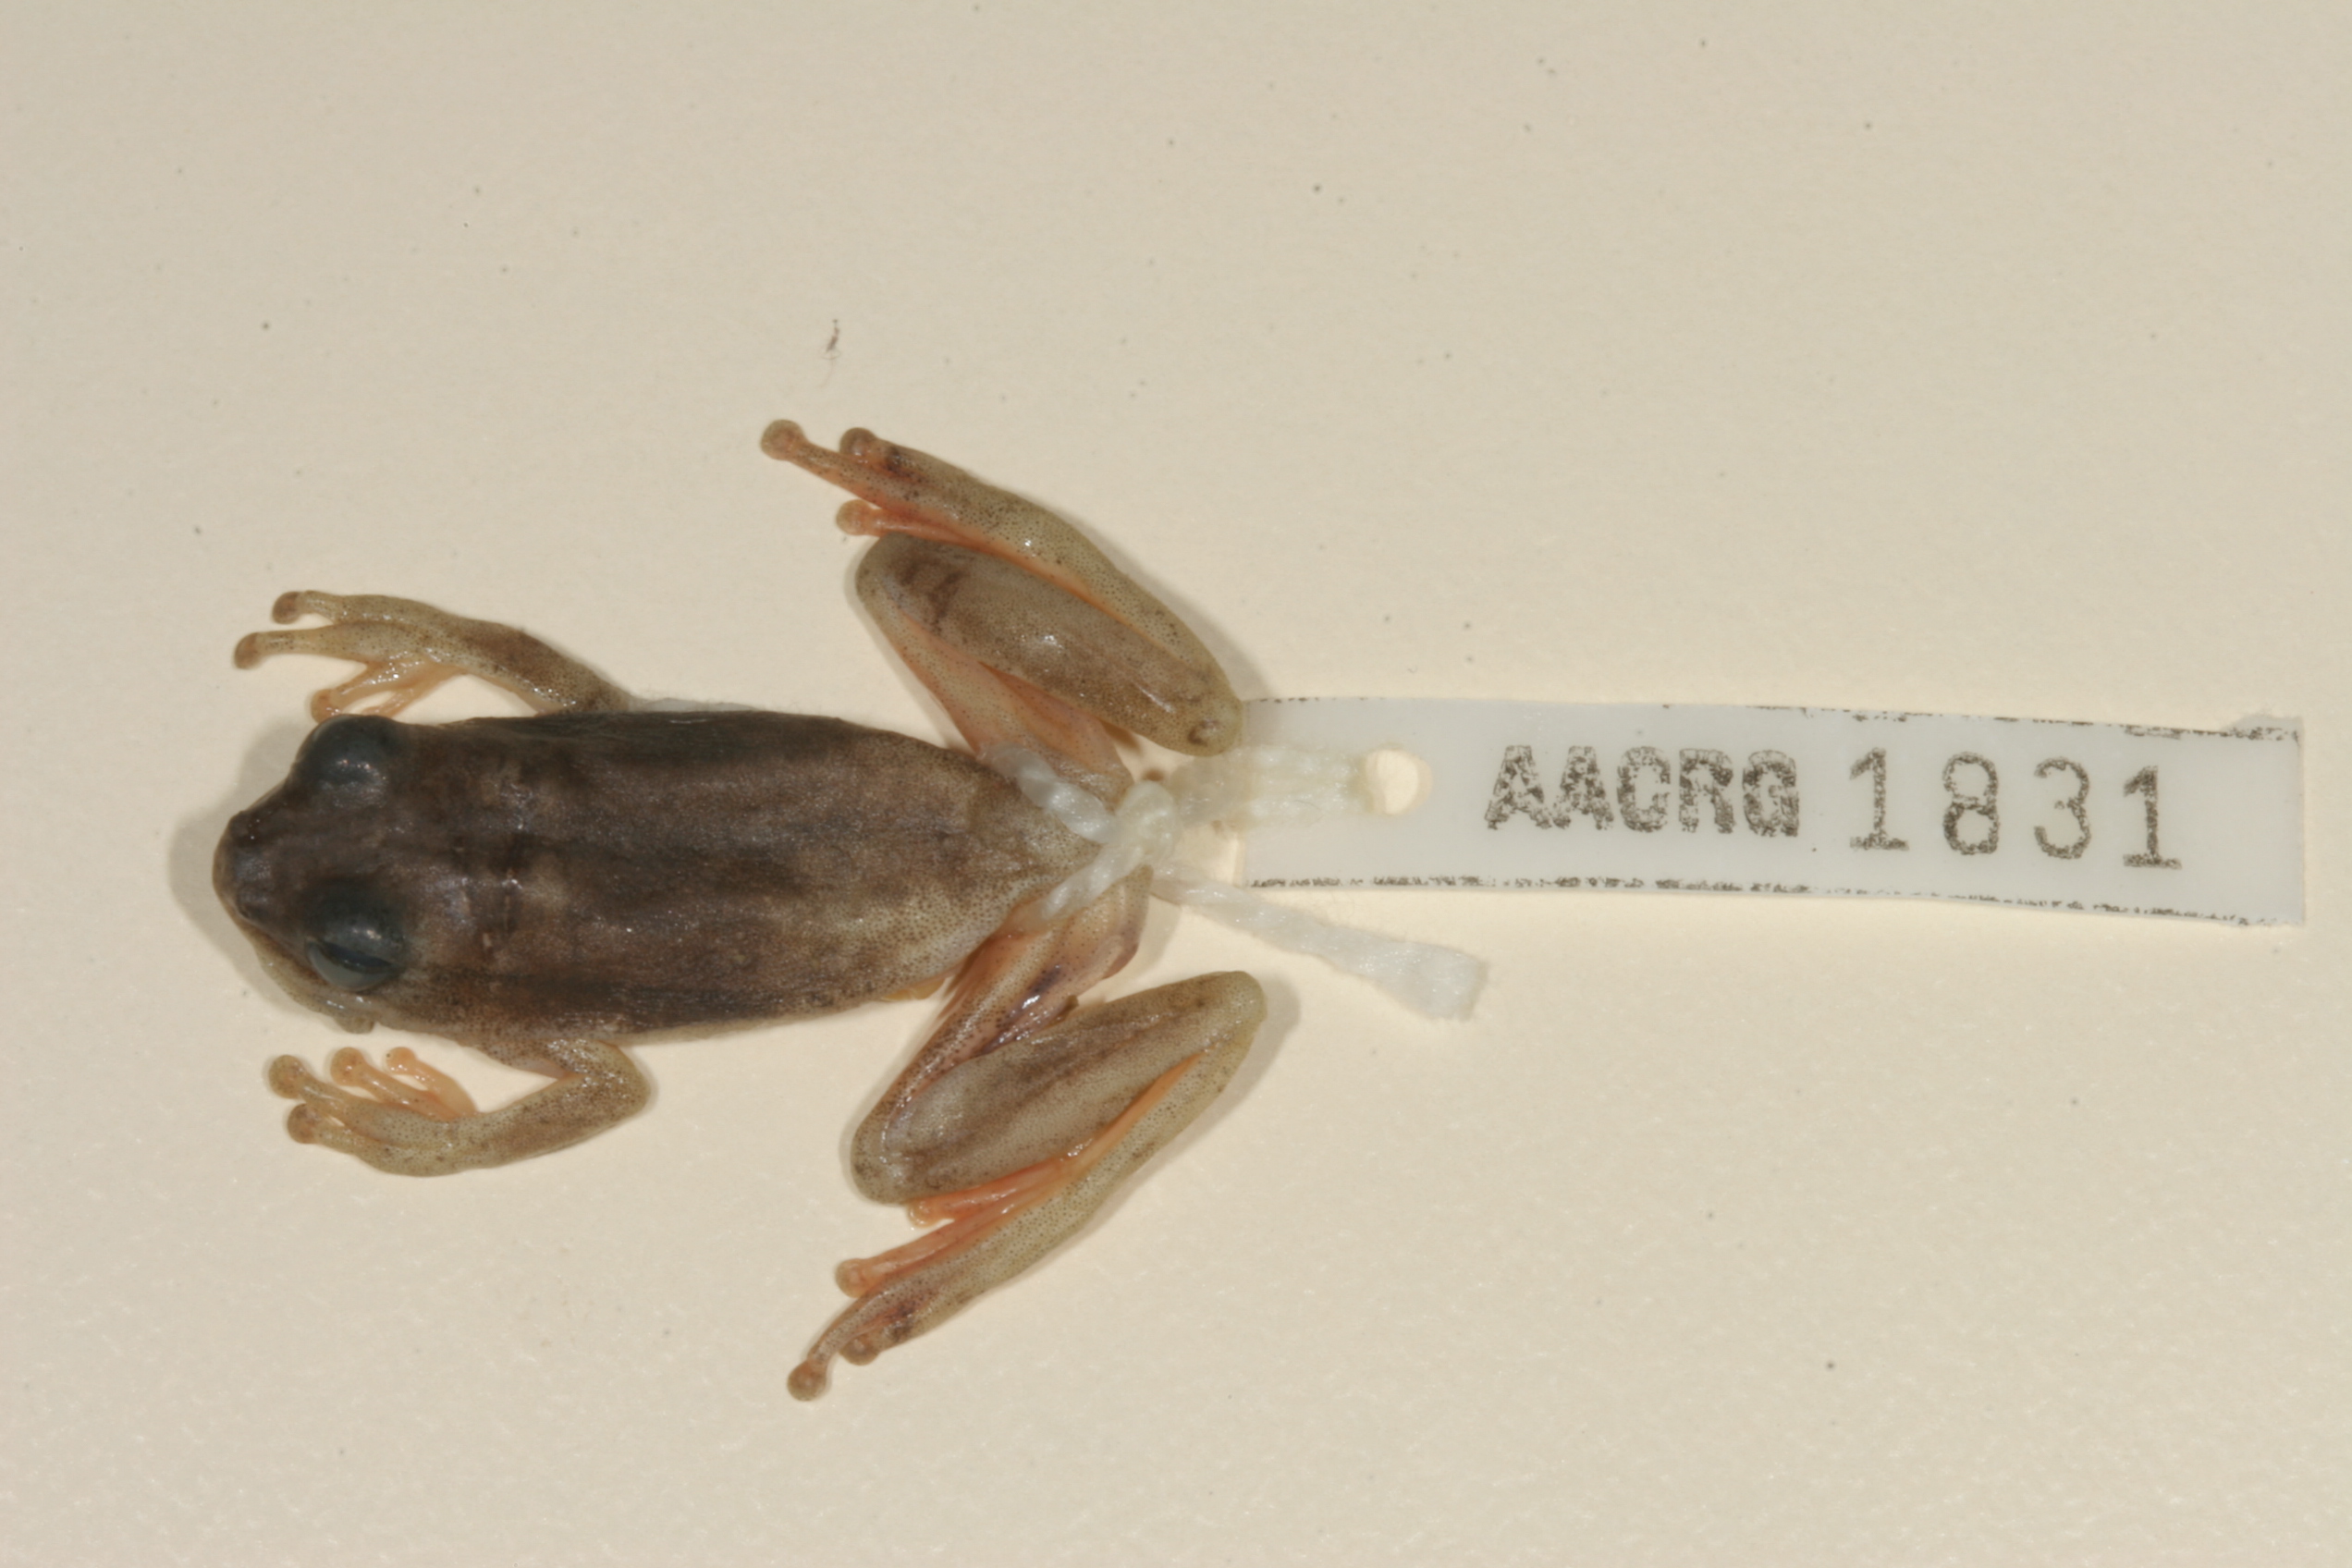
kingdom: Animalia
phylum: Chordata
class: Amphibia
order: Anura
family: Hyperoliidae
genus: Hyperolius
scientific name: Hyperolius marmoratus
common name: Painted reed frog
